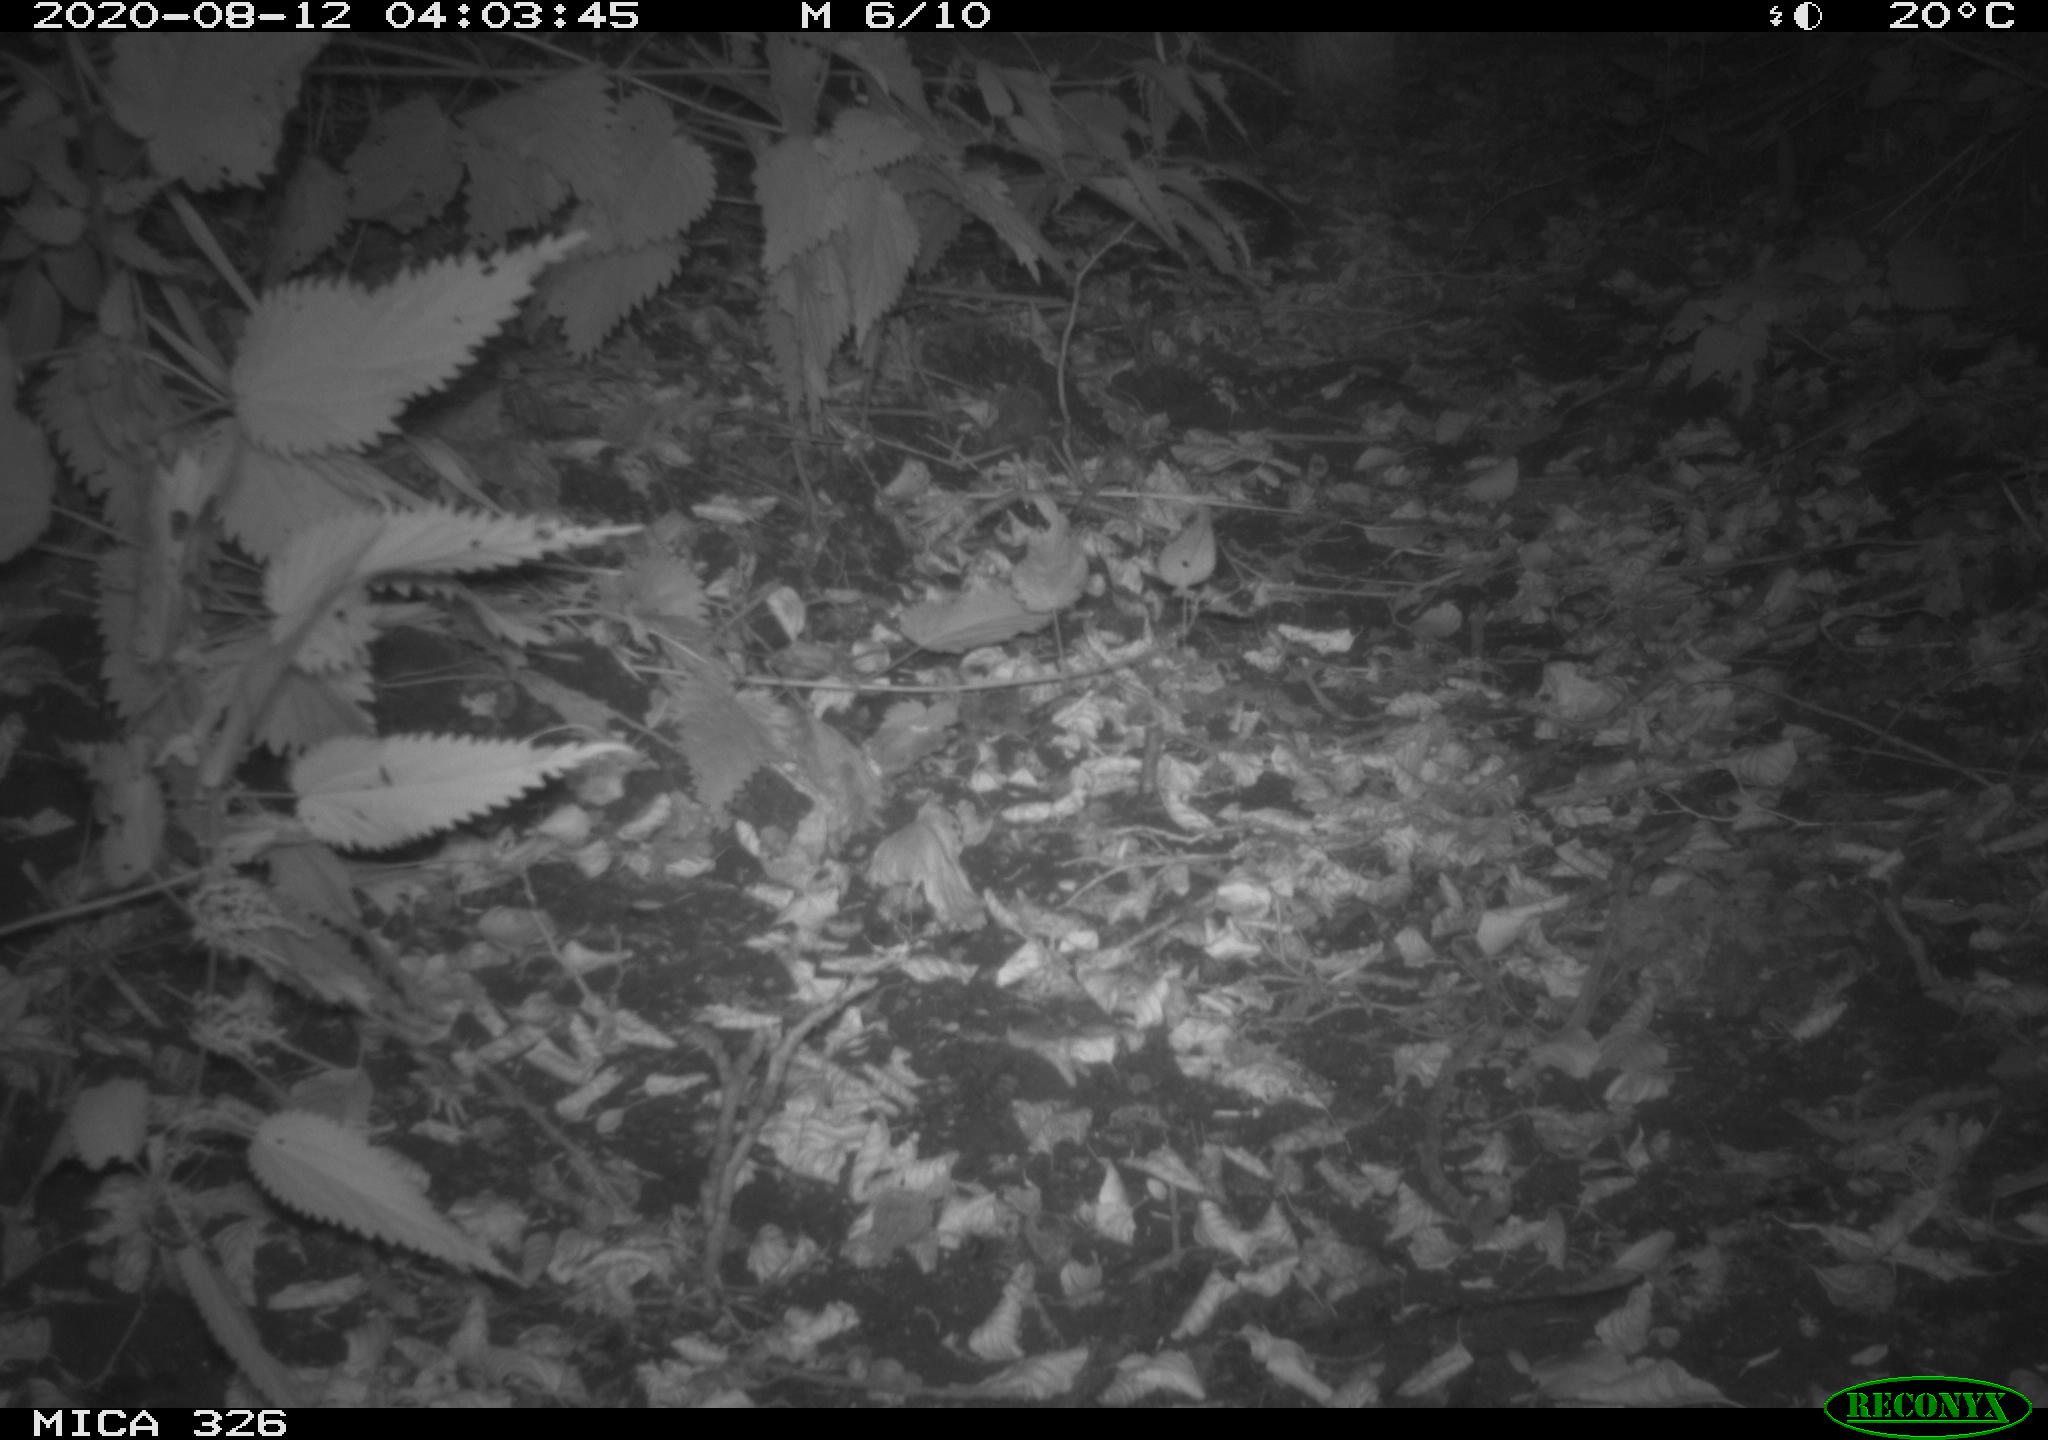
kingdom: Animalia
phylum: Chordata
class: Mammalia
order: Rodentia
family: Muridae
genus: Rattus
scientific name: Rattus norvegicus
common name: Brown rat
